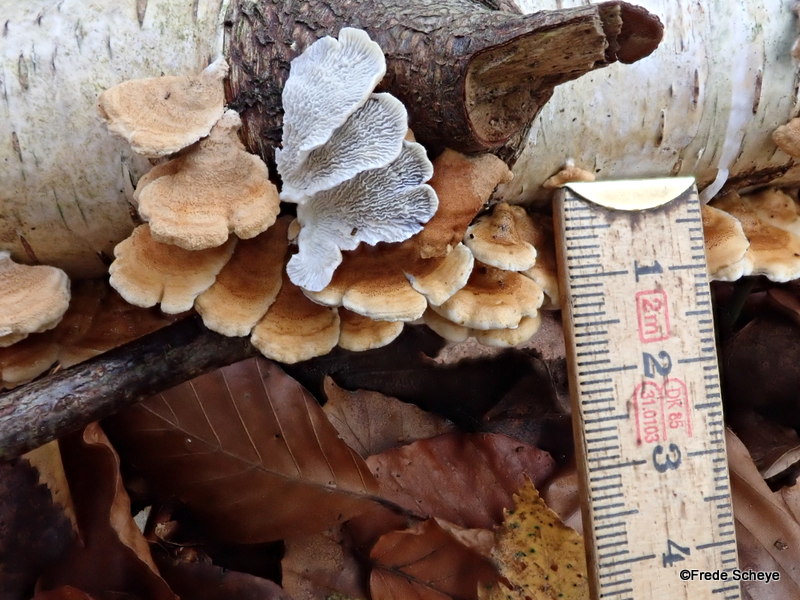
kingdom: Fungi
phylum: Basidiomycota
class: Agaricomycetes
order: Amylocorticiales
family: Amylocorticiaceae
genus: Plicaturopsis
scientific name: Plicaturopsis crispa
